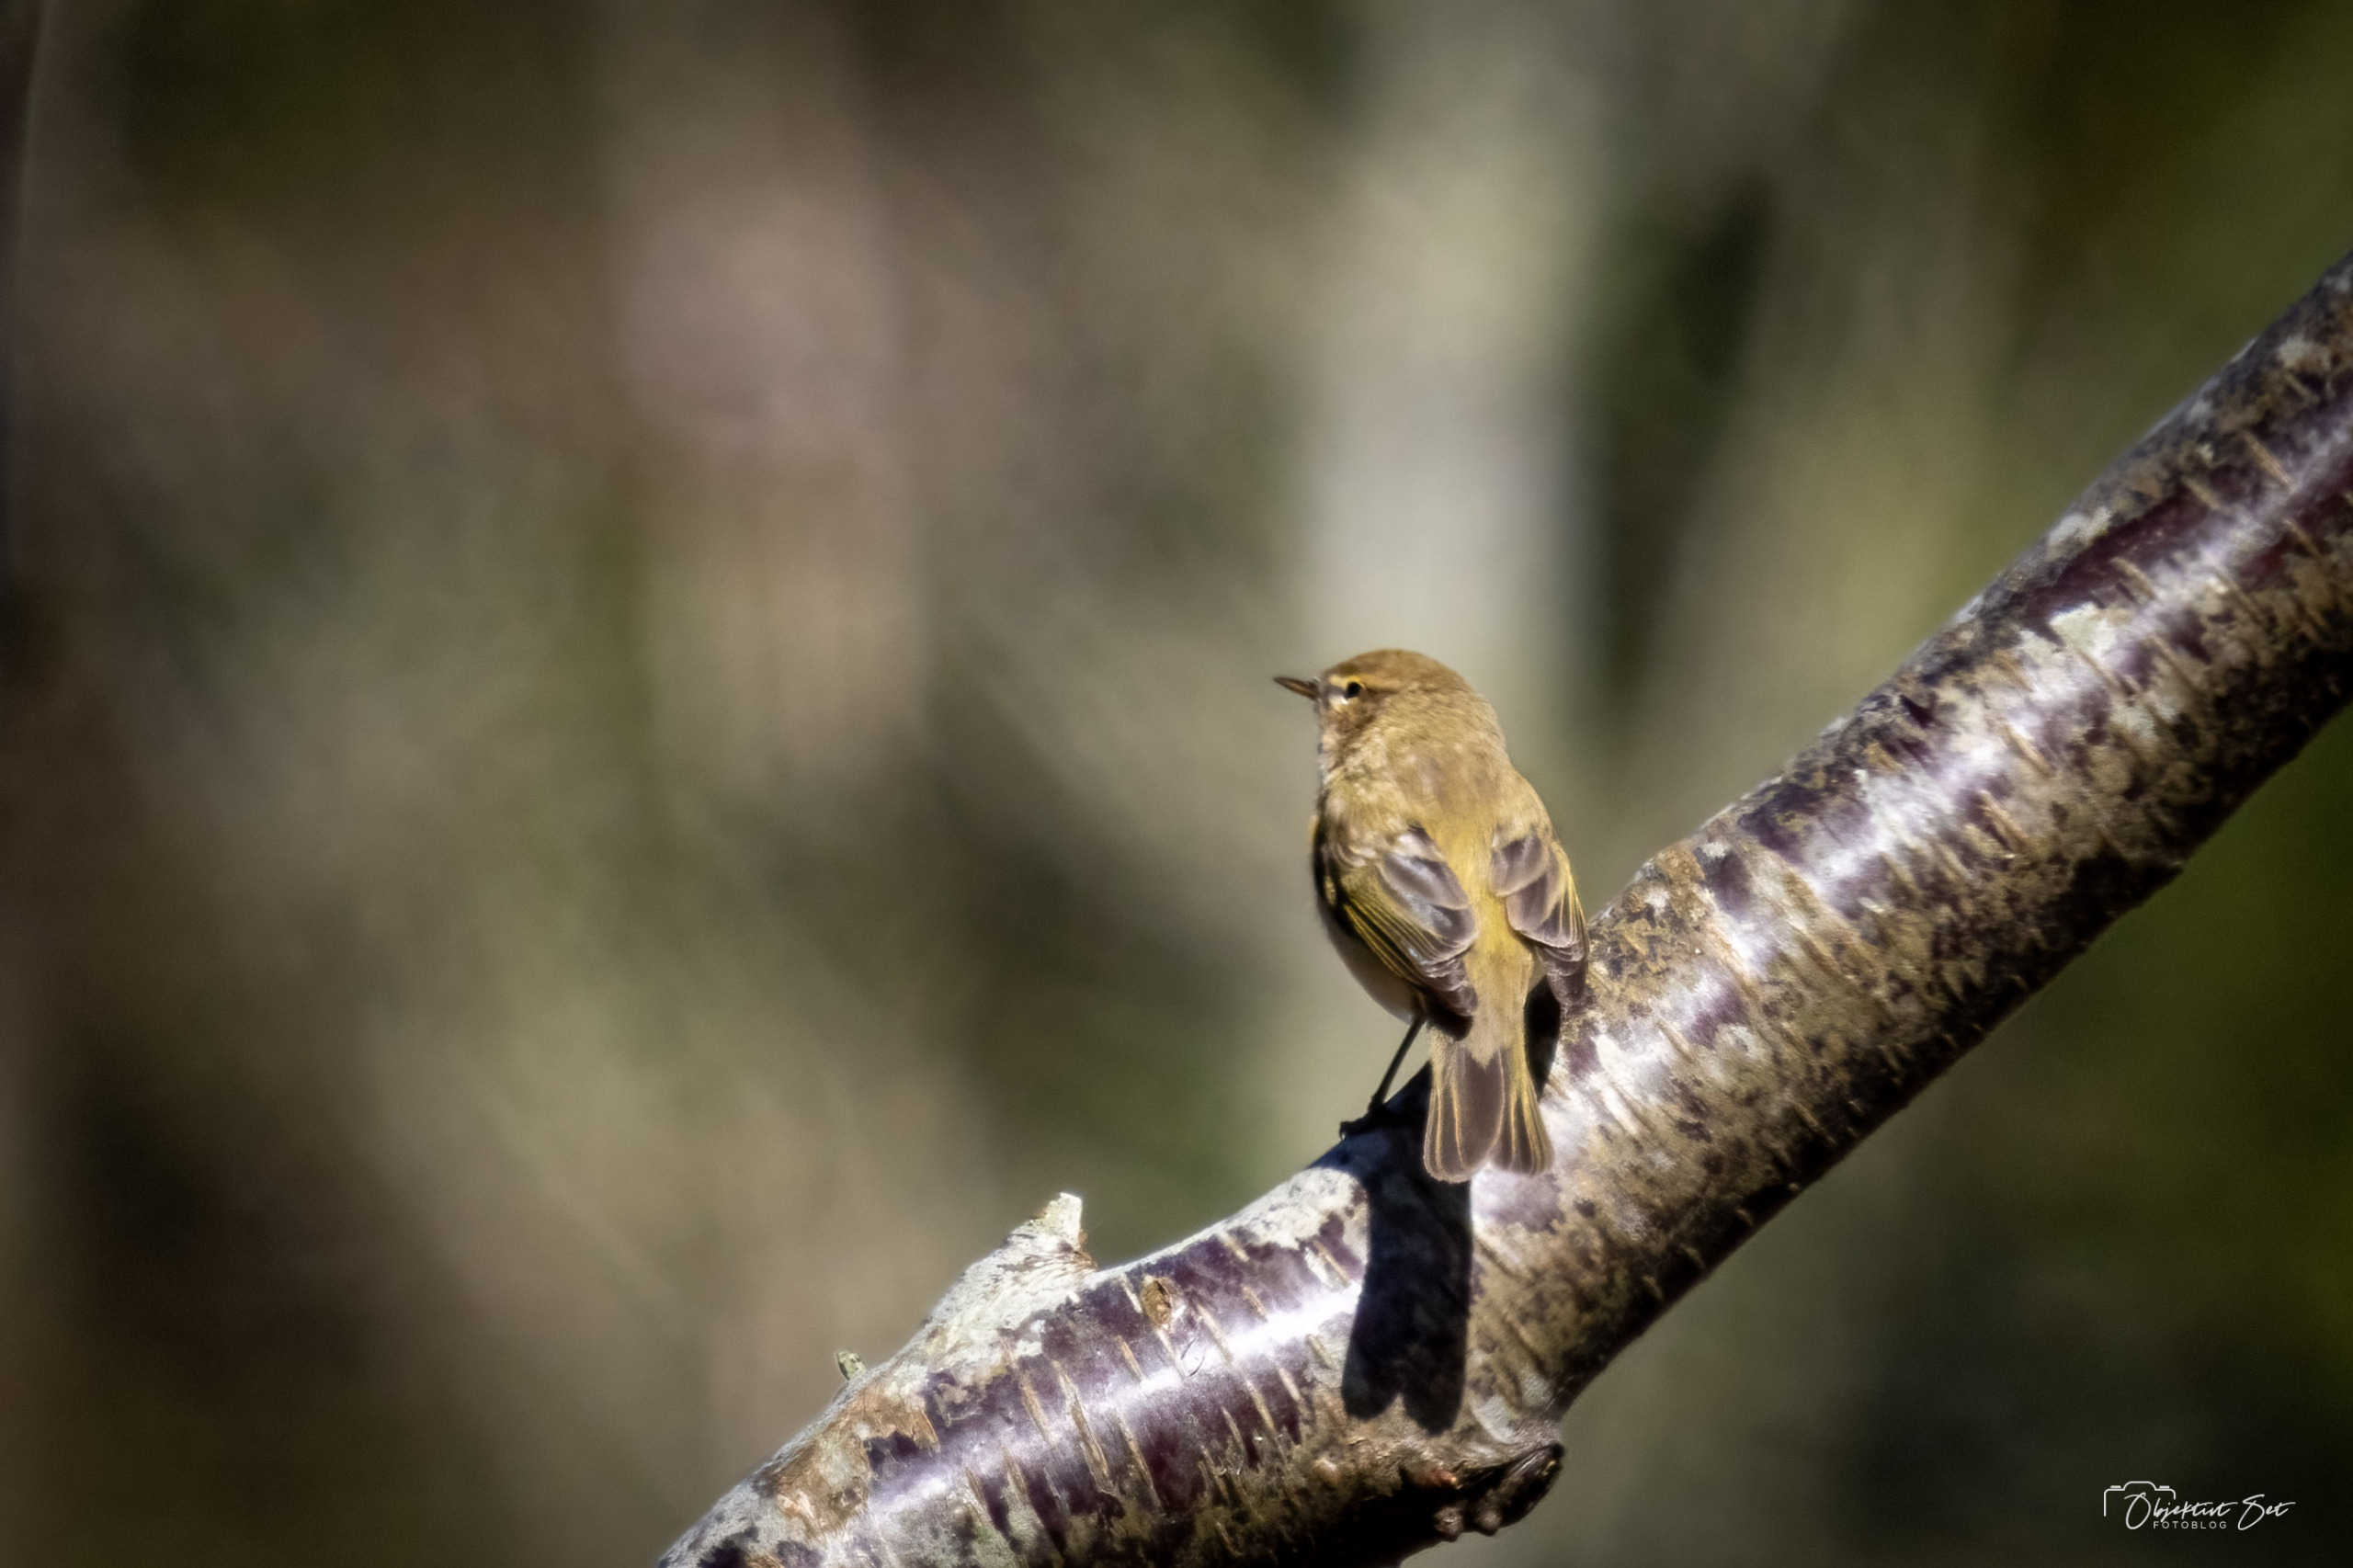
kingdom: Animalia
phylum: Chordata
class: Aves
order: Passeriformes
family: Phylloscopidae
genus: Phylloscopus
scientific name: Phylloscopus collybita
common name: Gransanger
